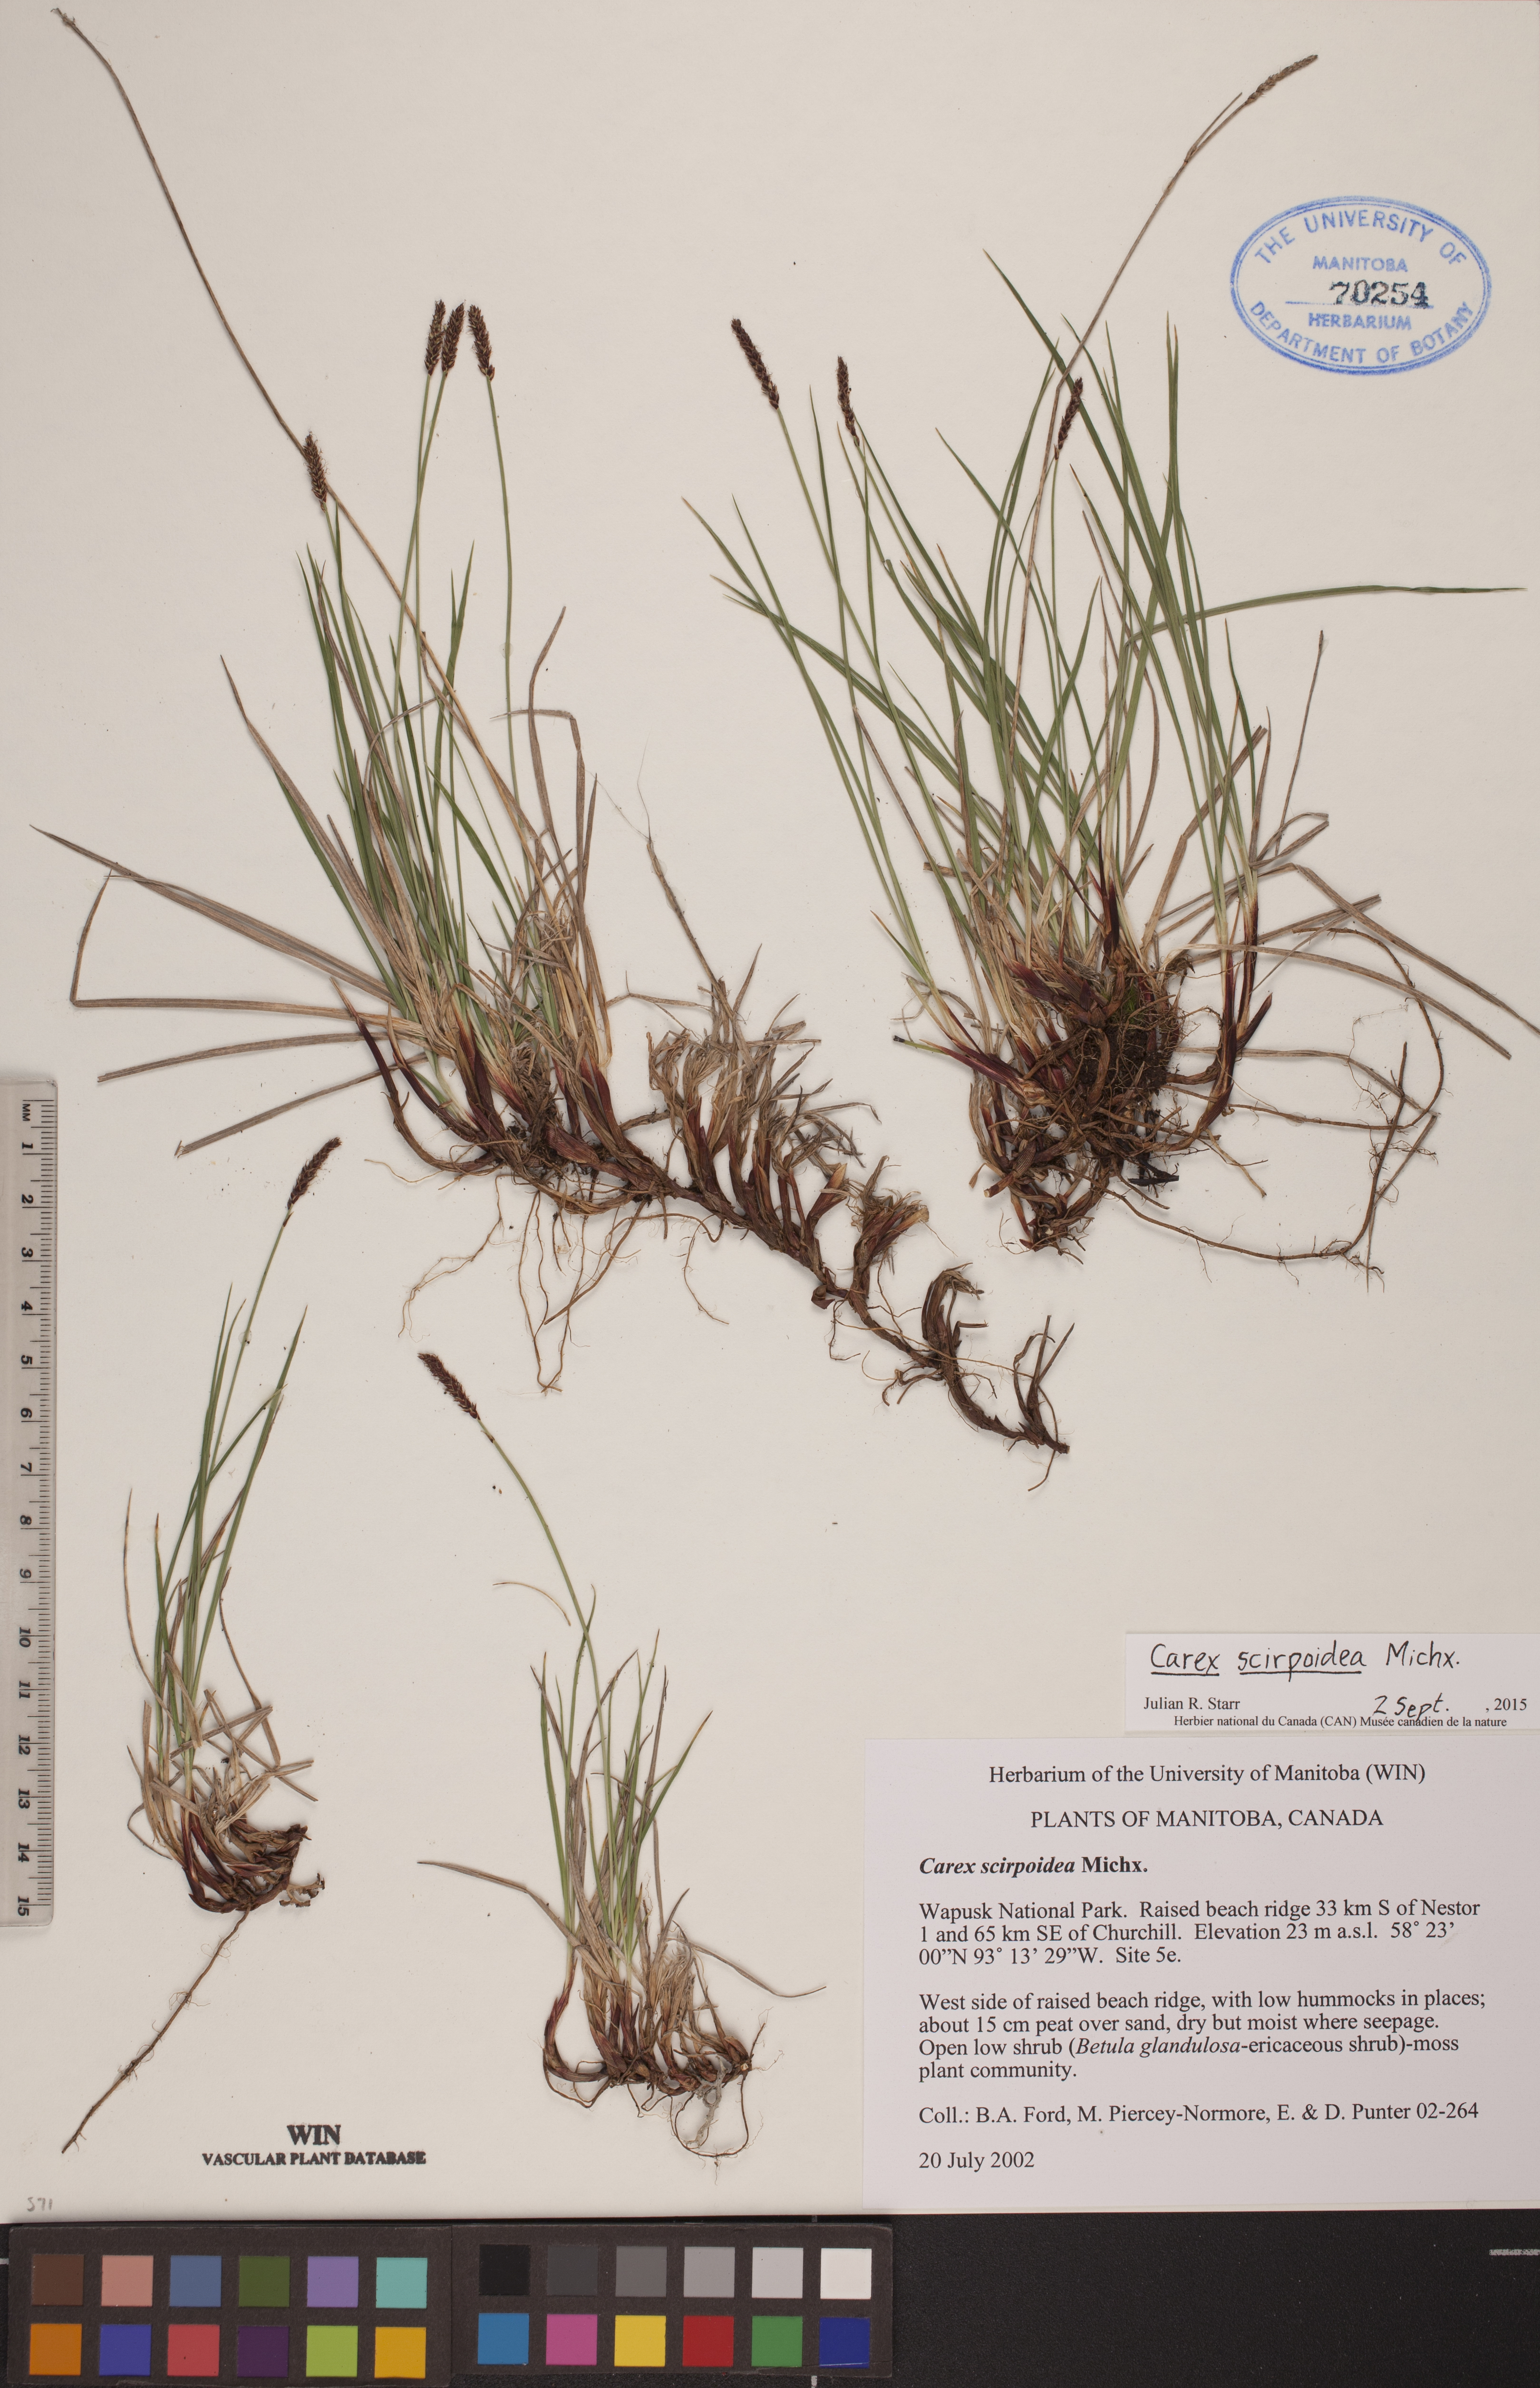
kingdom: Plantae
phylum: Tracheophyta
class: Liliopsida
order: Poales
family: Cyperaceae
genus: Carex
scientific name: Carex scirpoidea
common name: Canada single-spike sedge
